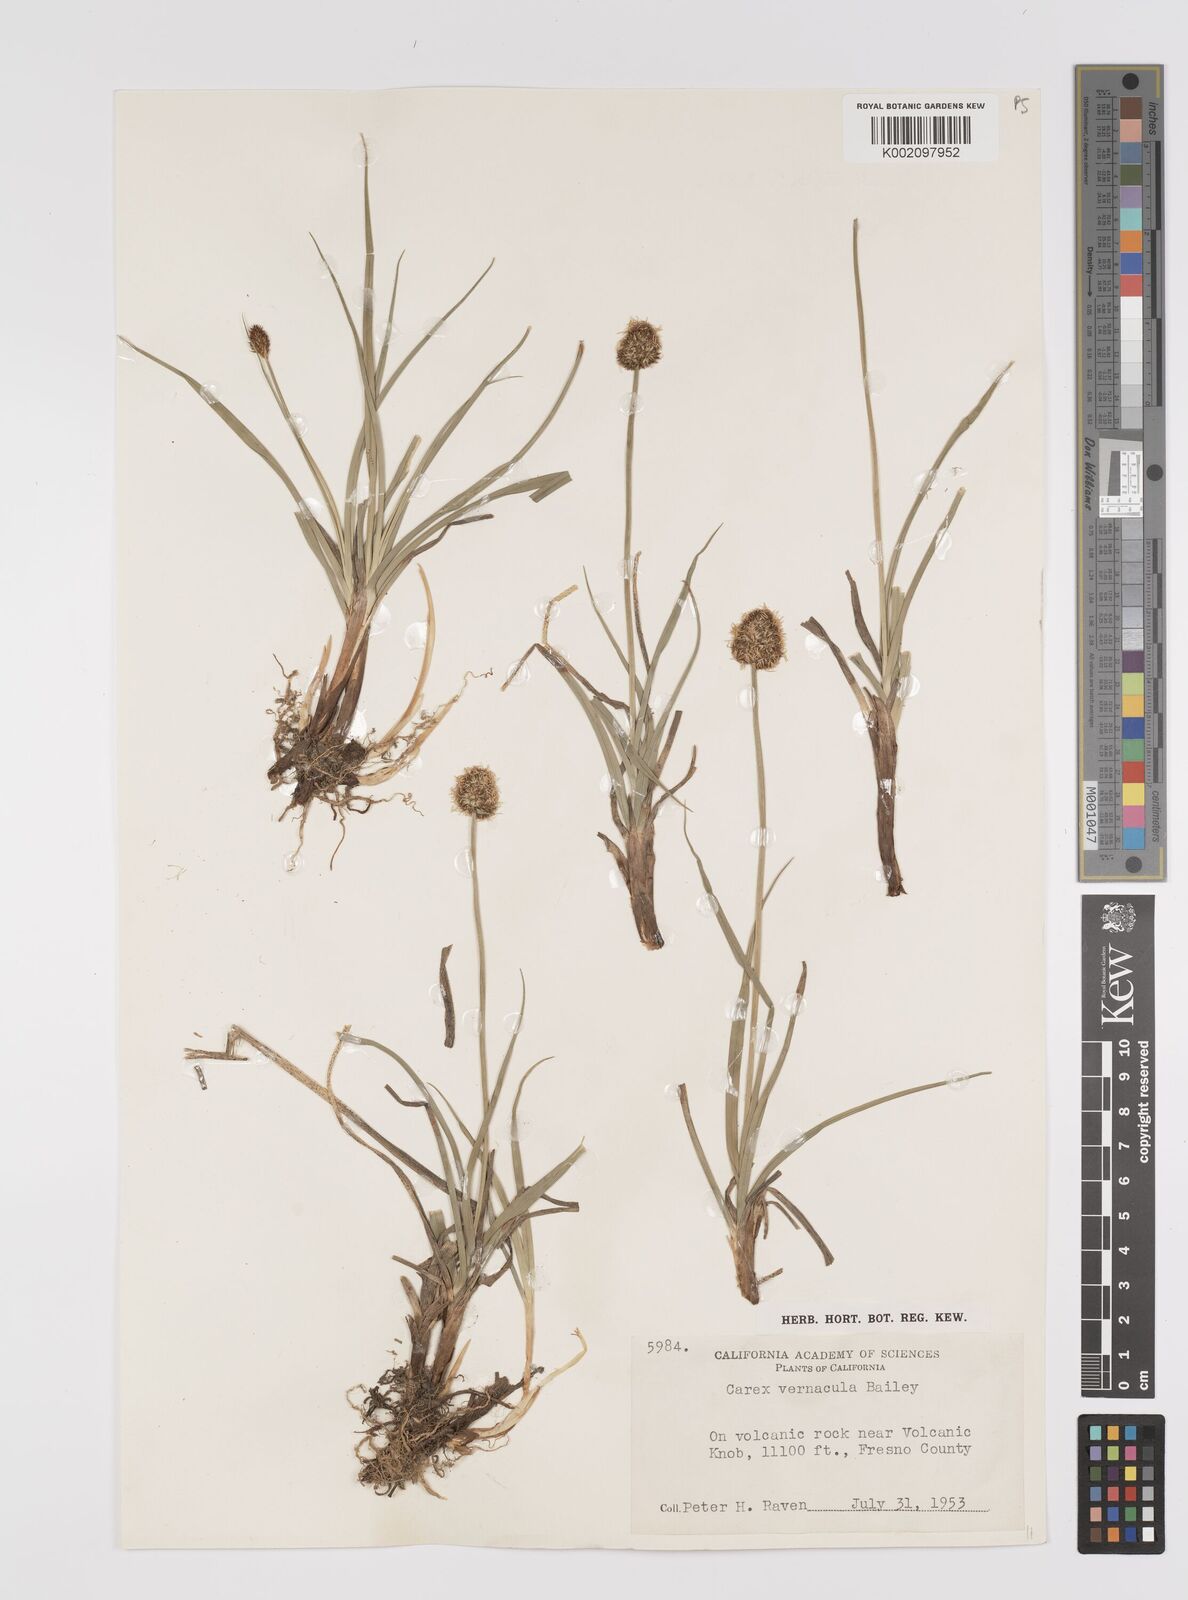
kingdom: Plantae
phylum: Tracheophyta
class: Liliopsida
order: Poales
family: Cyperaceae
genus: Carex
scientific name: Carex vernacula
